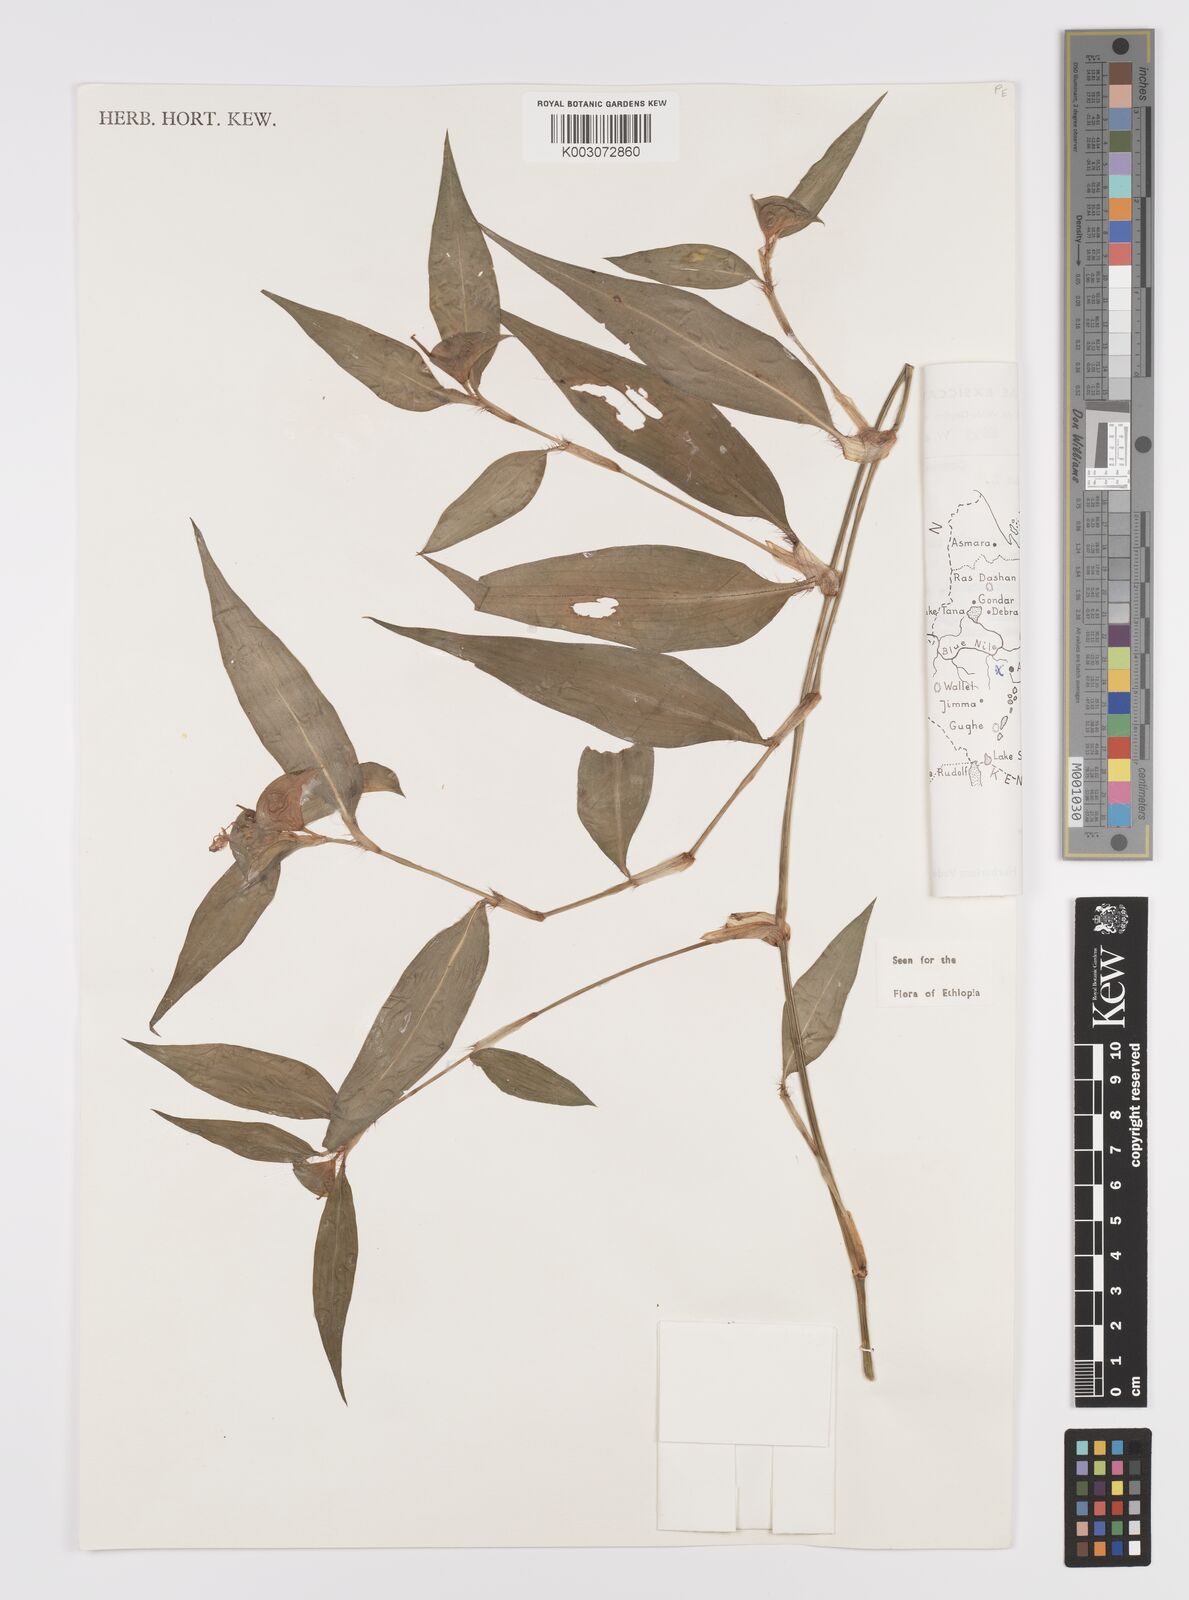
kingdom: Plantae
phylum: Tracheophyta
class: Liliopsida
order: Commelinales
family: Commelinaceae
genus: Commelina
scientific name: Commelina benghalensis
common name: Jio
